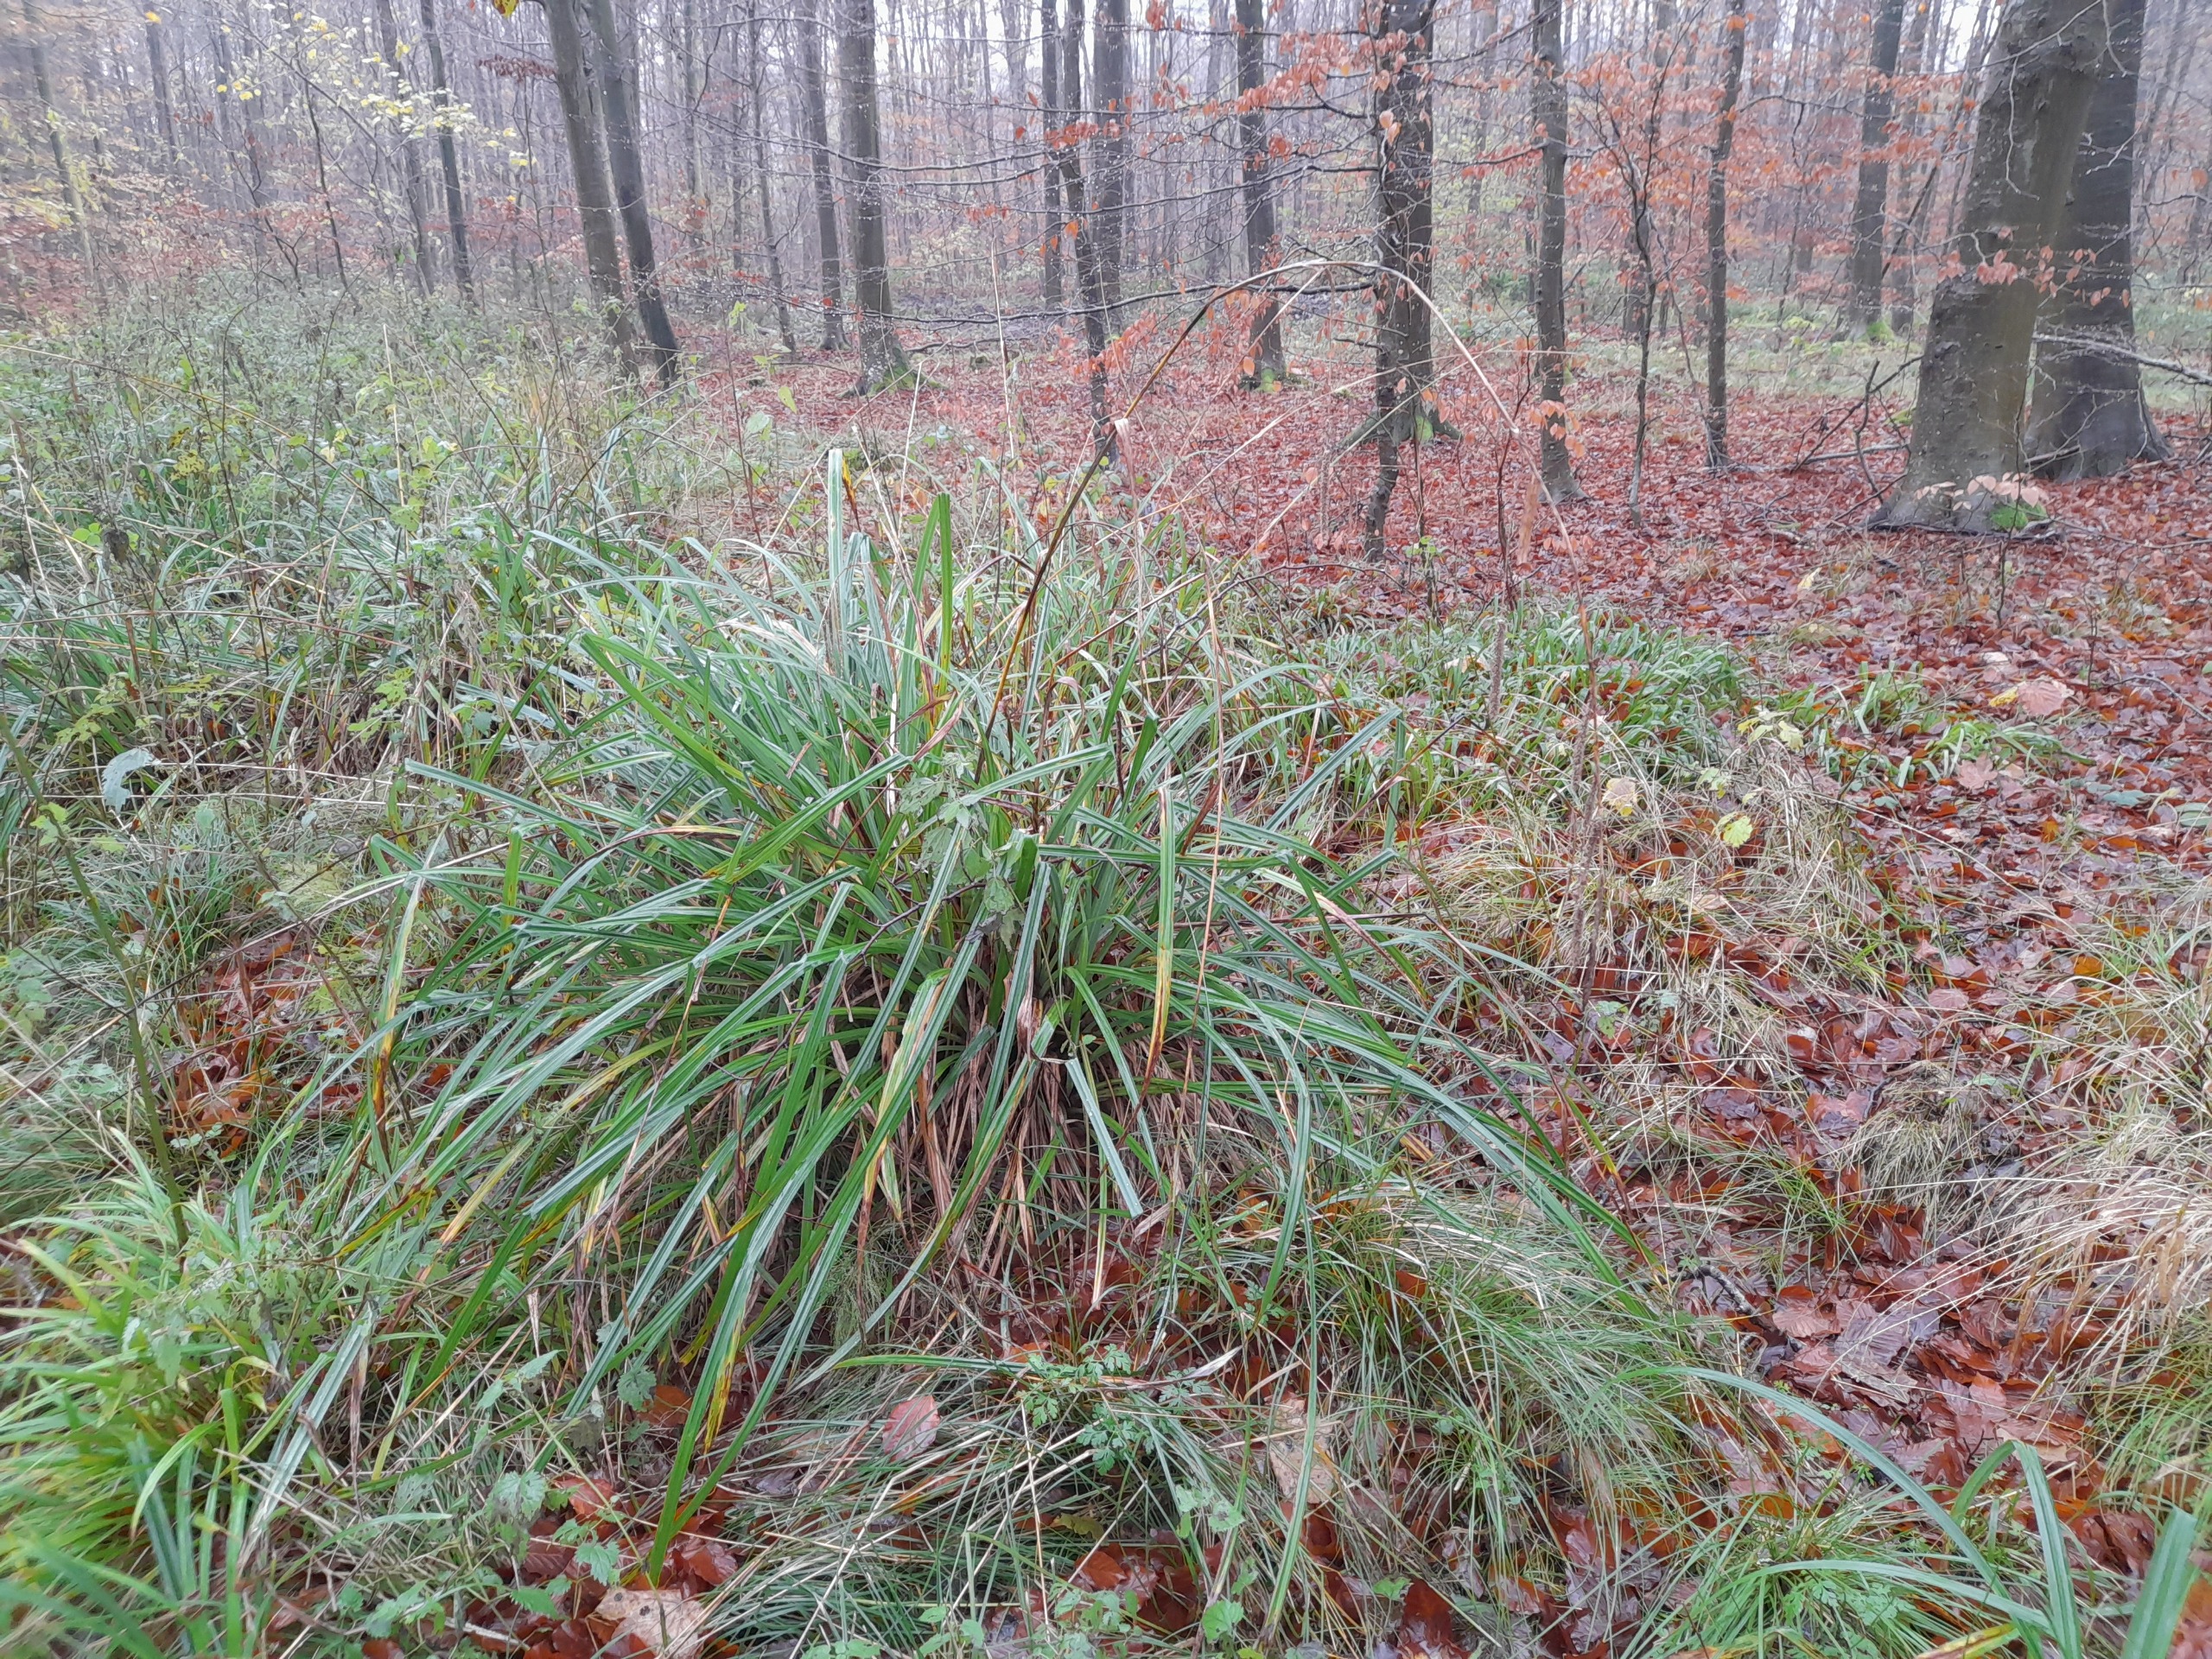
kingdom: Plantae
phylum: Tracheophyta
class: Liliopsida
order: Poales
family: Cyperaceae
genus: Carex
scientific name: Carex pendula
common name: Kæmpe-star
